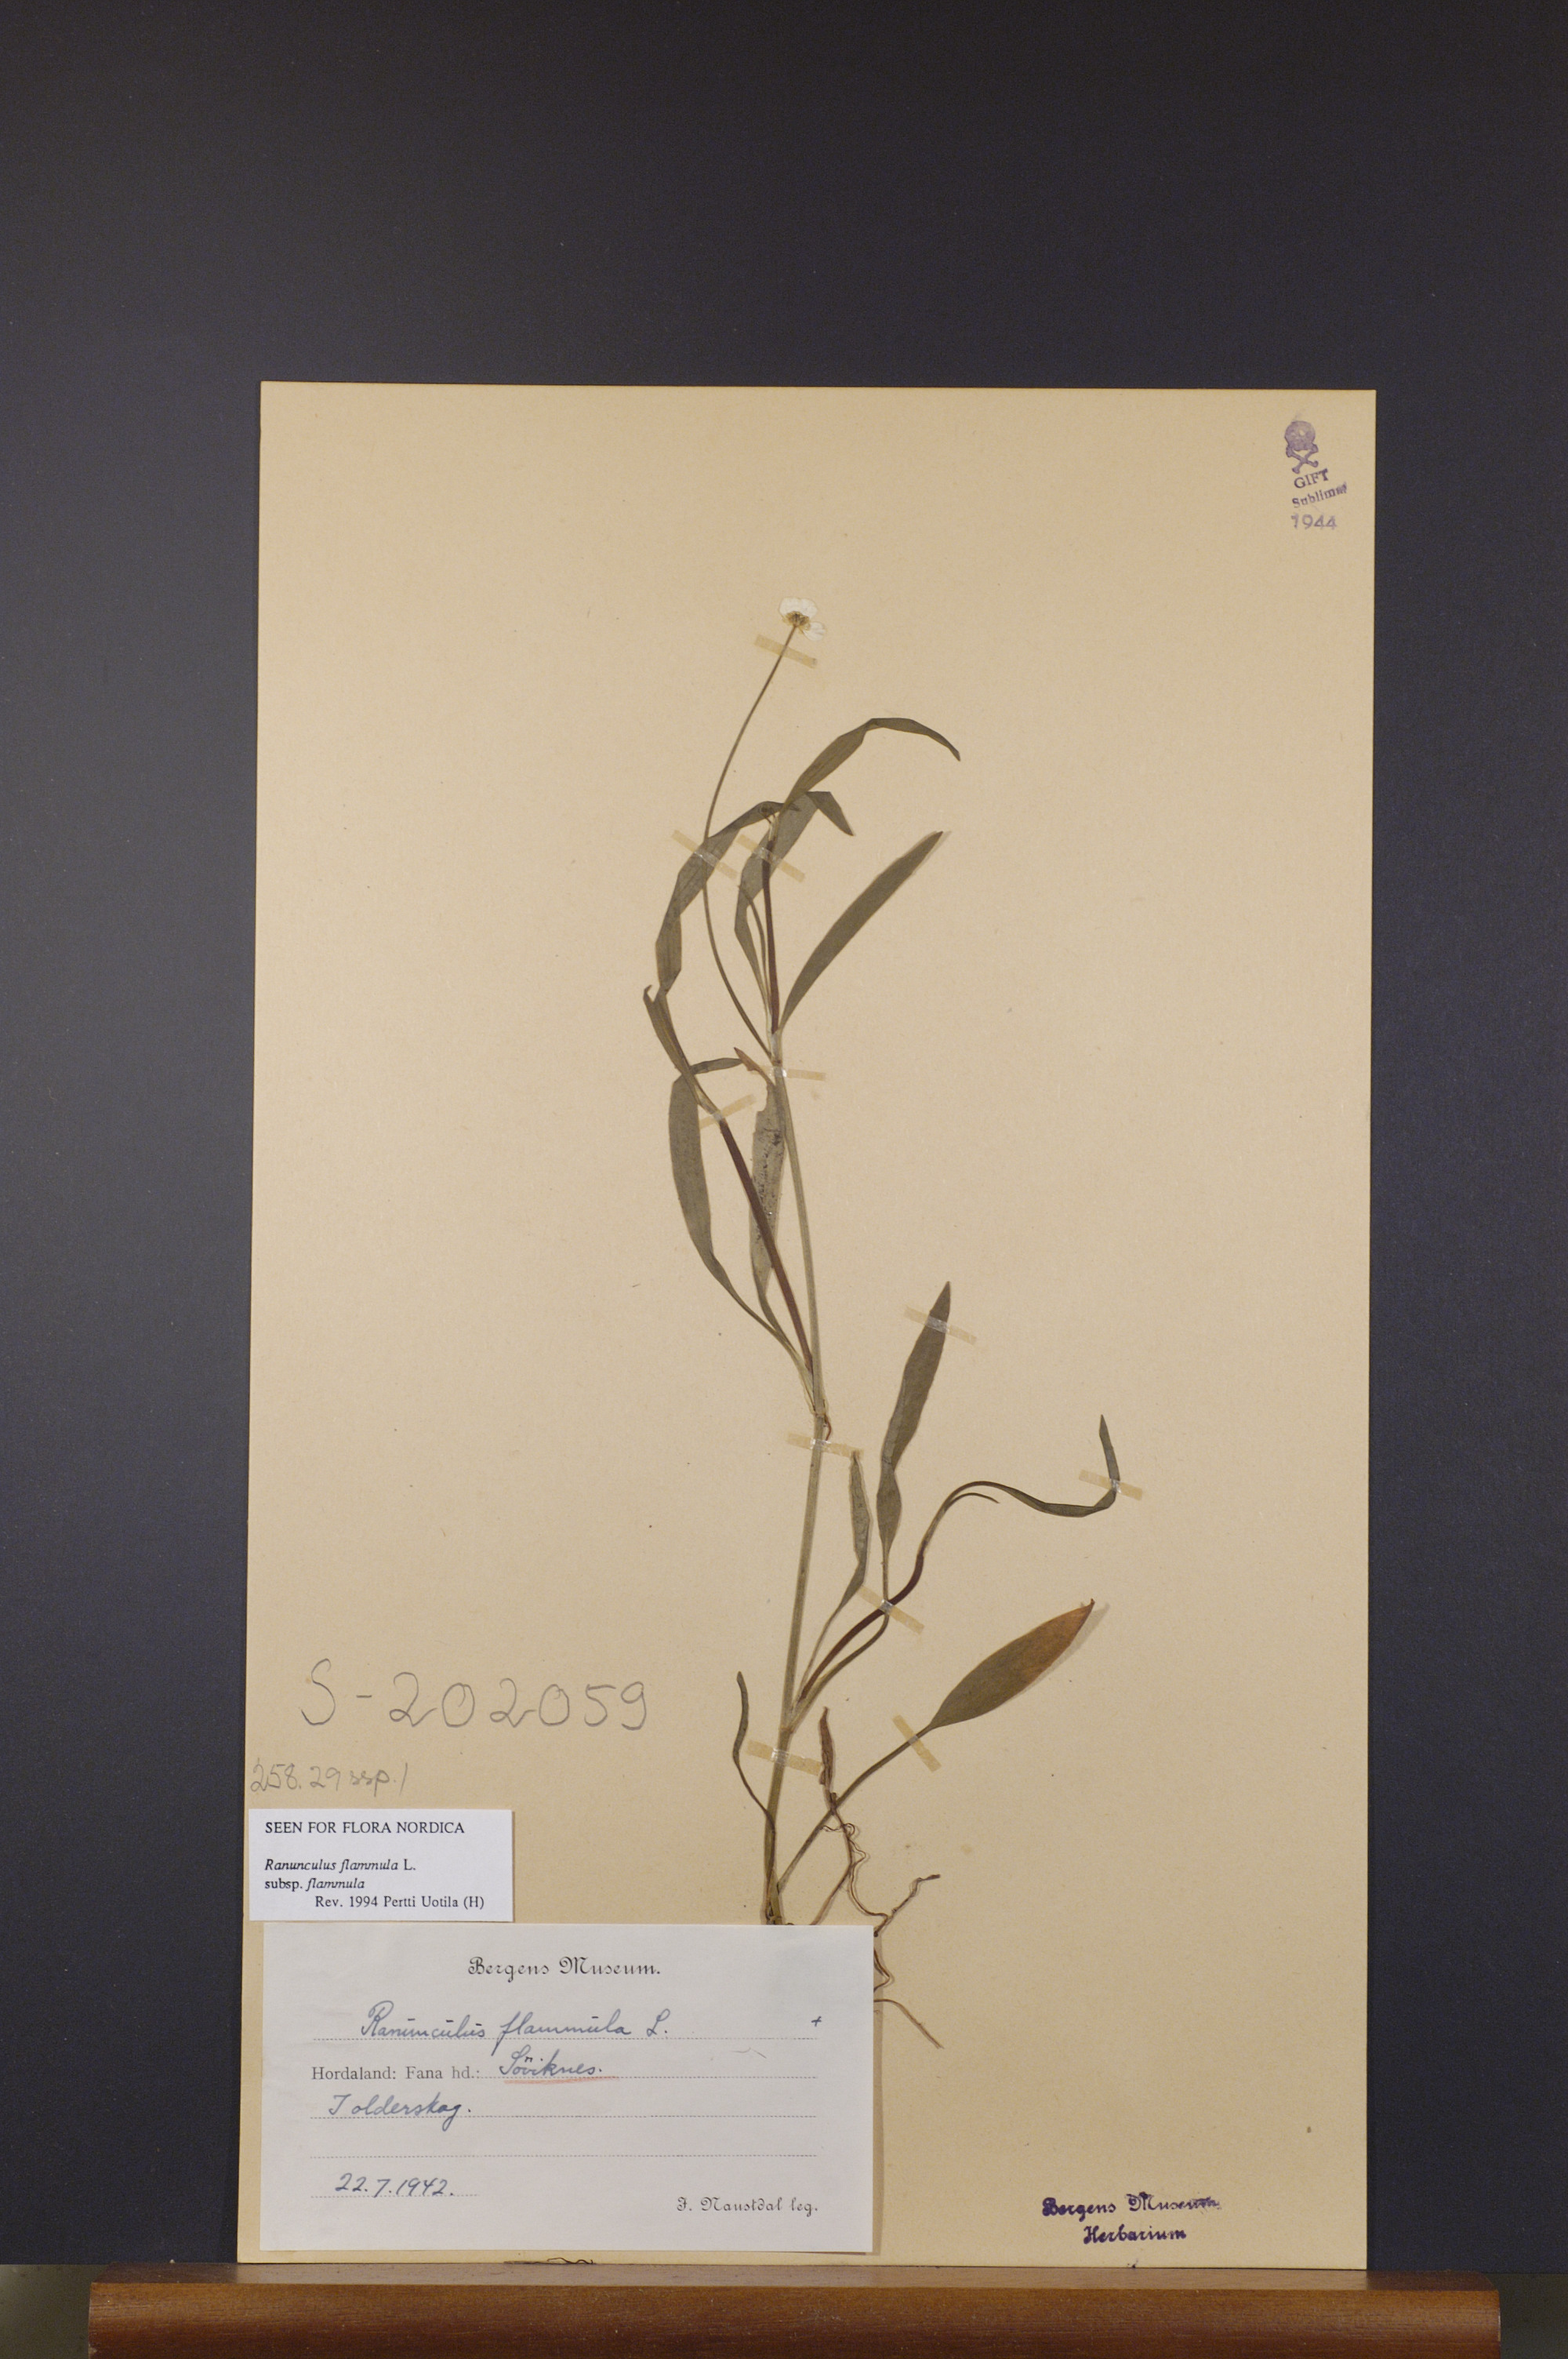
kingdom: Plantae
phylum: Tracheophyta
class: Magnoliopsida
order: Ranunculales
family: Ranunculaceae
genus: Ranunculus
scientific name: Ranunculus flammula
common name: Lesser spearwort
